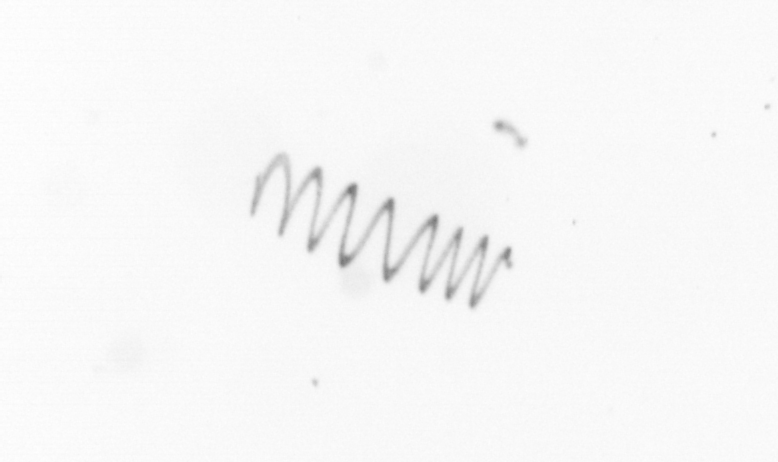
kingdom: Chromista
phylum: Ochrophyta
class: Bacillariophyceae
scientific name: Bacillariophyceae
